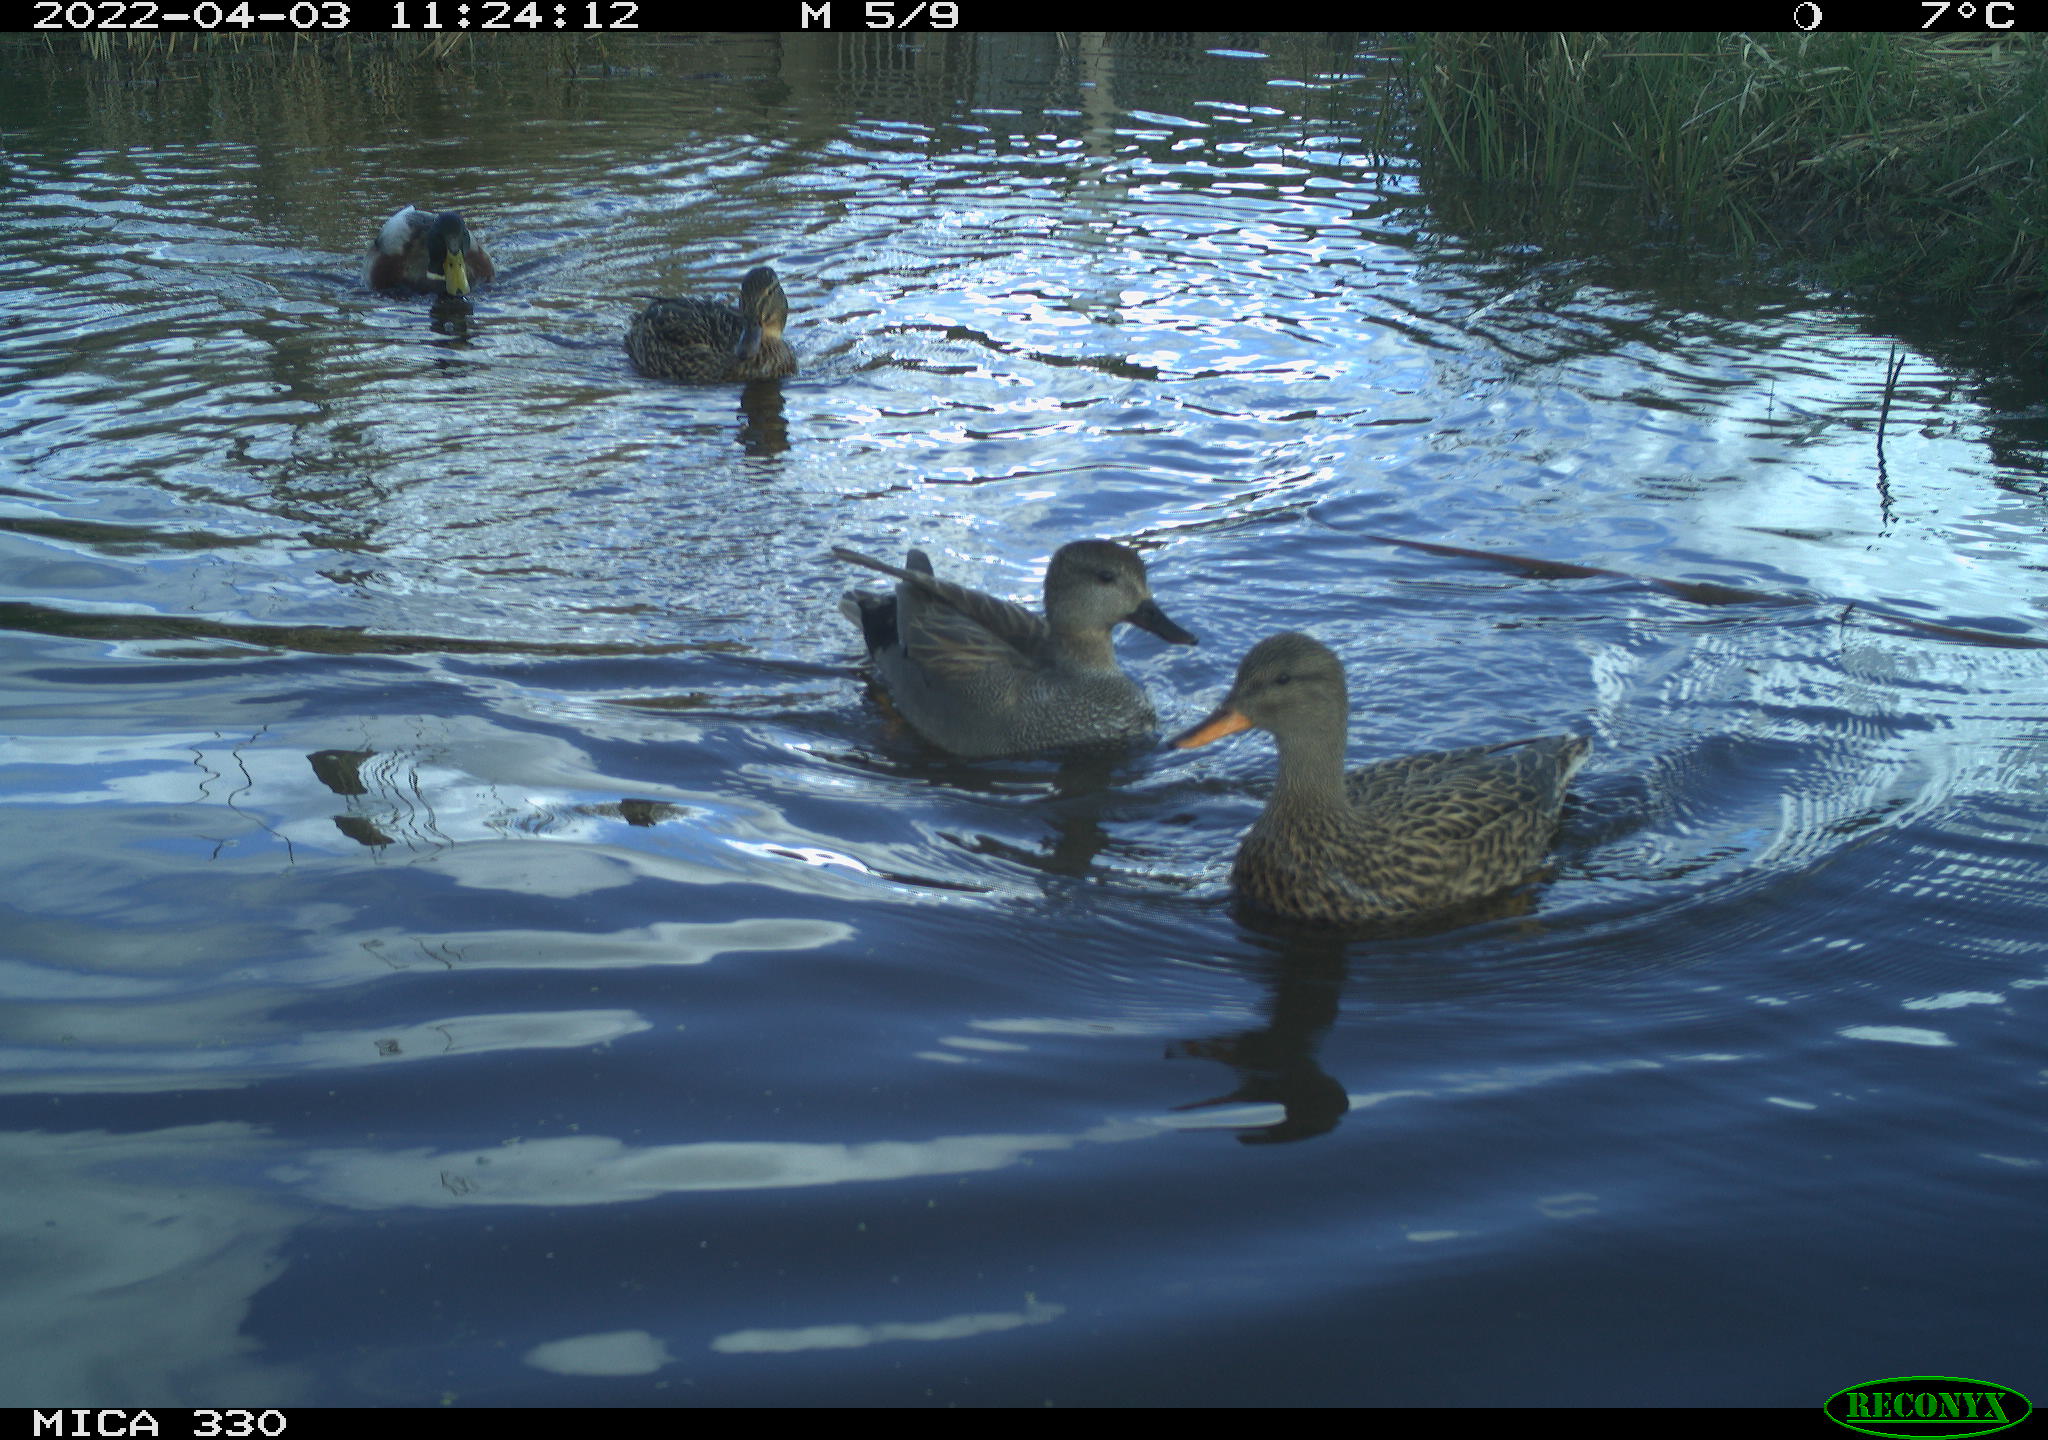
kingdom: Animalia
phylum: Chordata
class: Aves
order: Anseriformes
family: Anatidae
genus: Mareca
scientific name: Mareca strepera
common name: Gadwall
